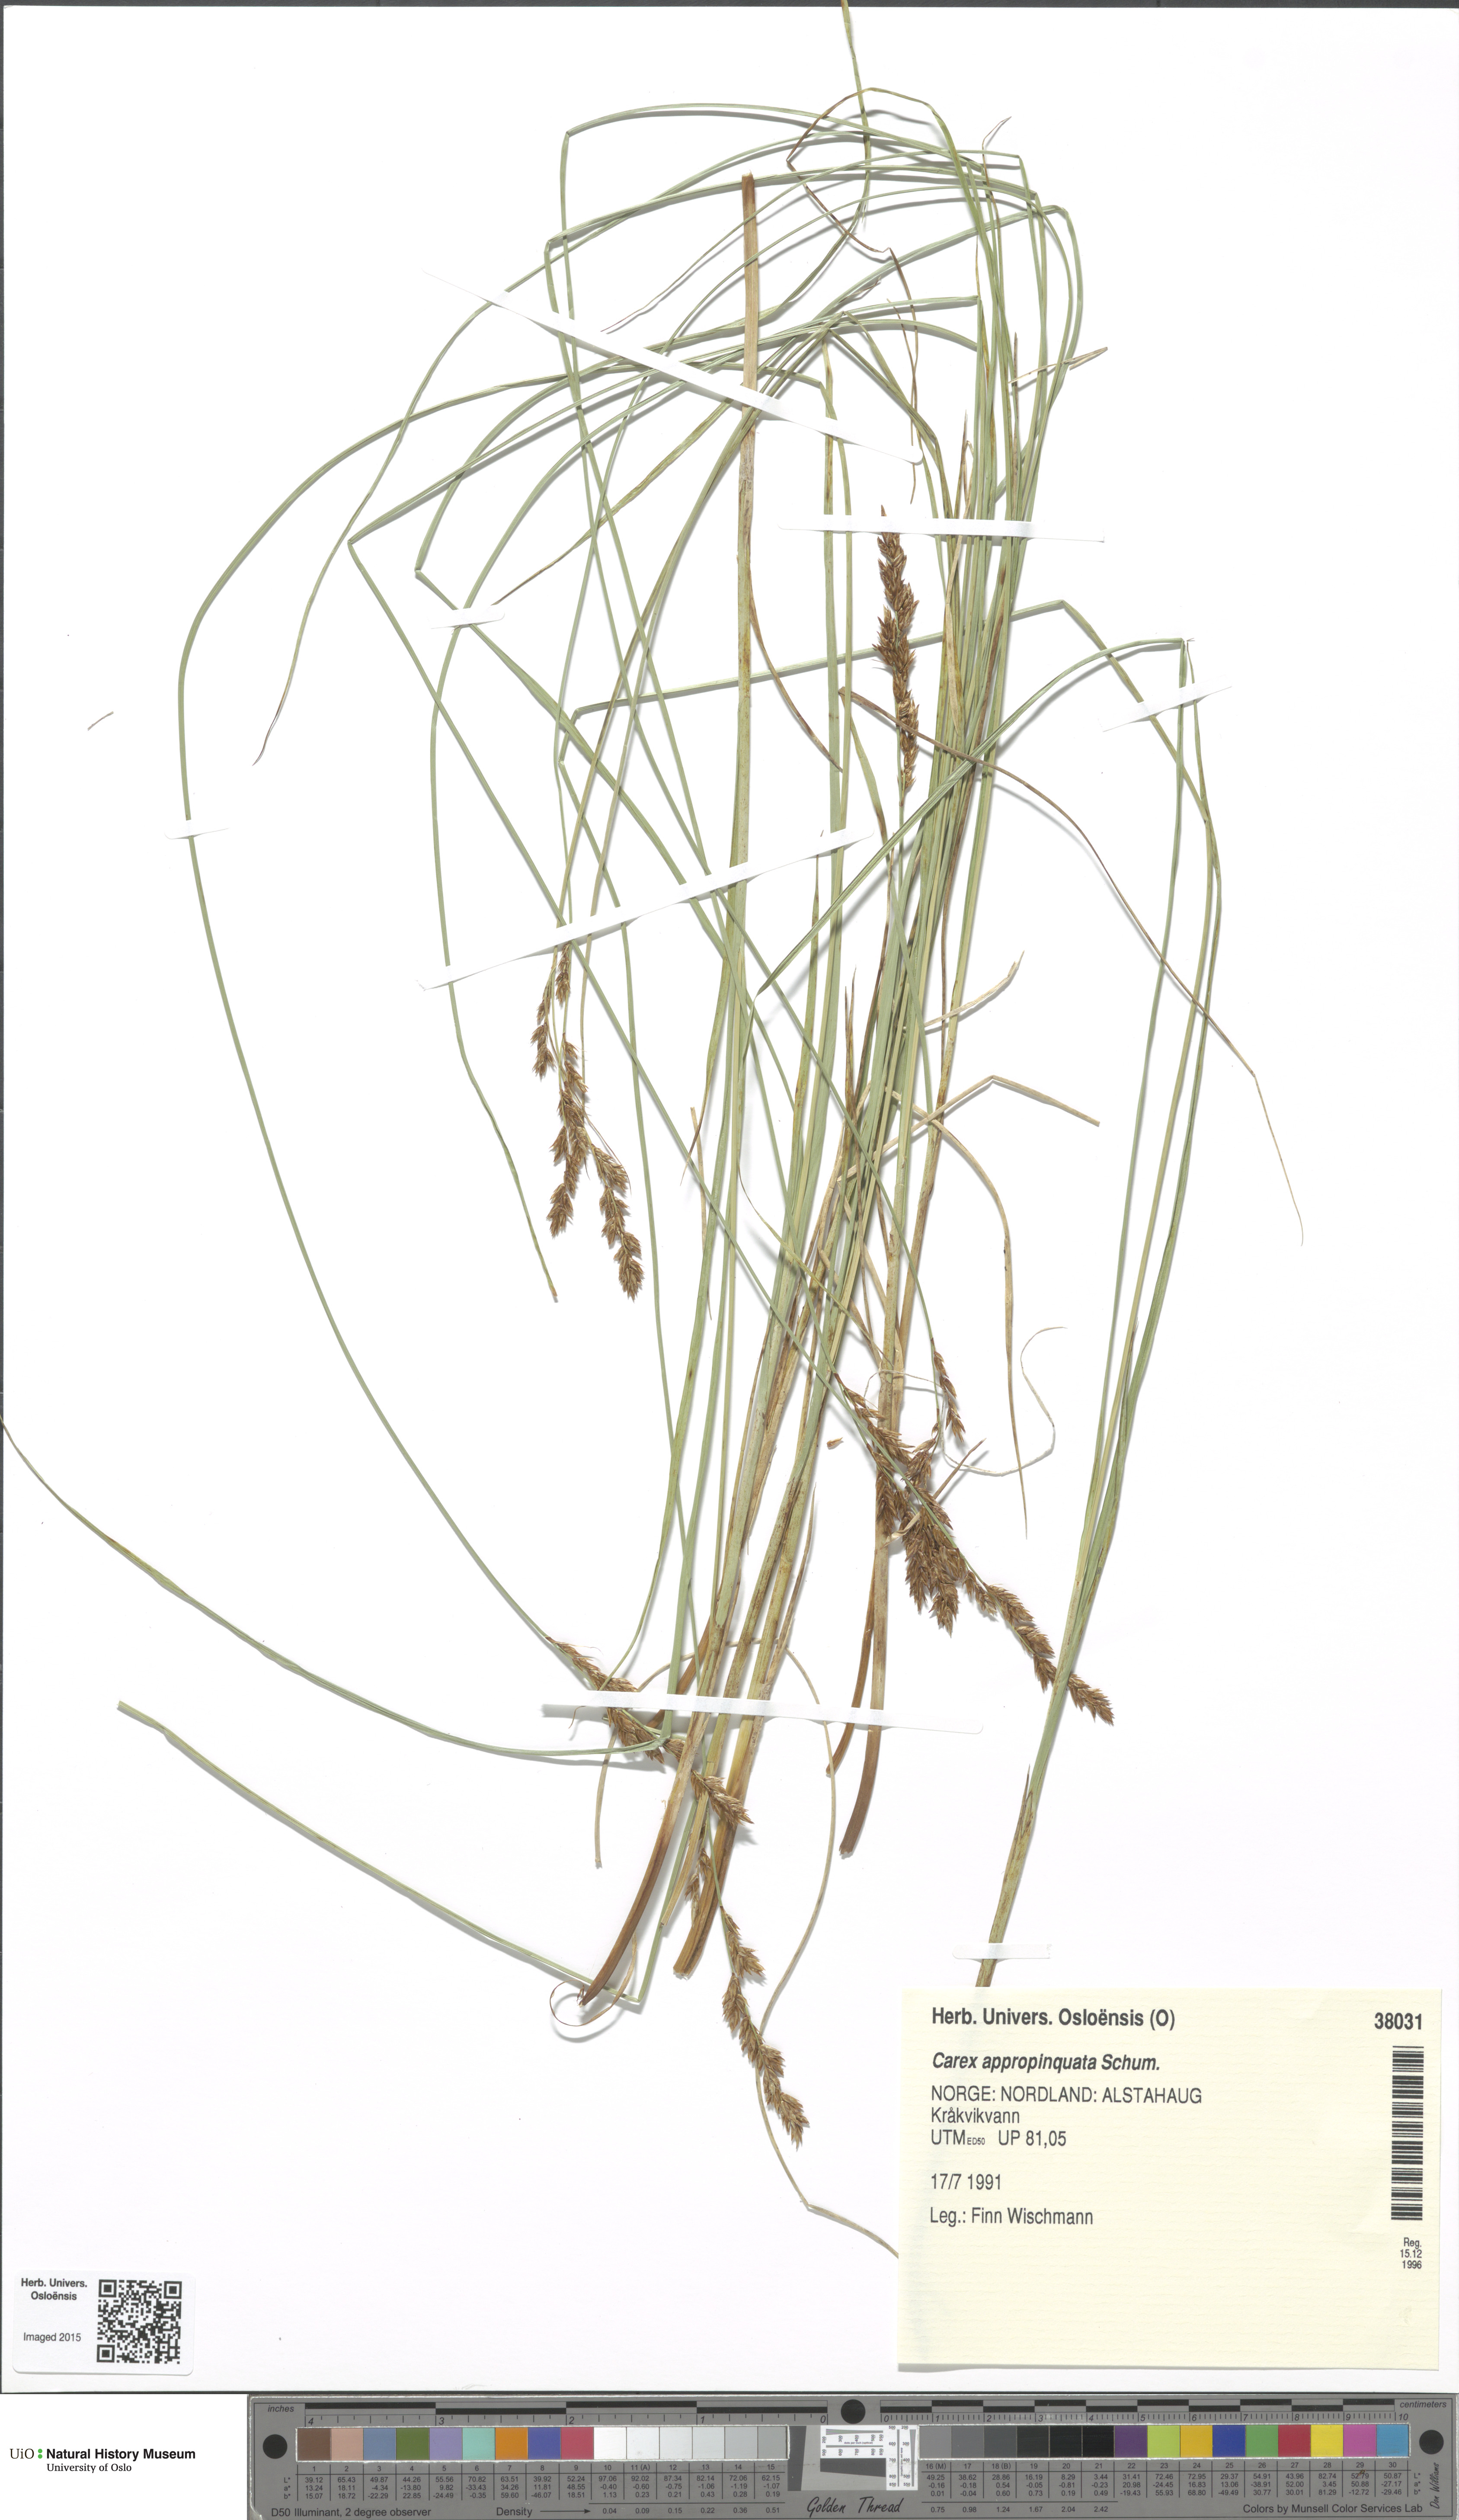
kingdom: Plantae
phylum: Tracheophyta
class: Liliopsida
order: Poales
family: Cyperaceae
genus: Carex
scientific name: Carex appropinquata
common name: Fibrous tussock-sedge
